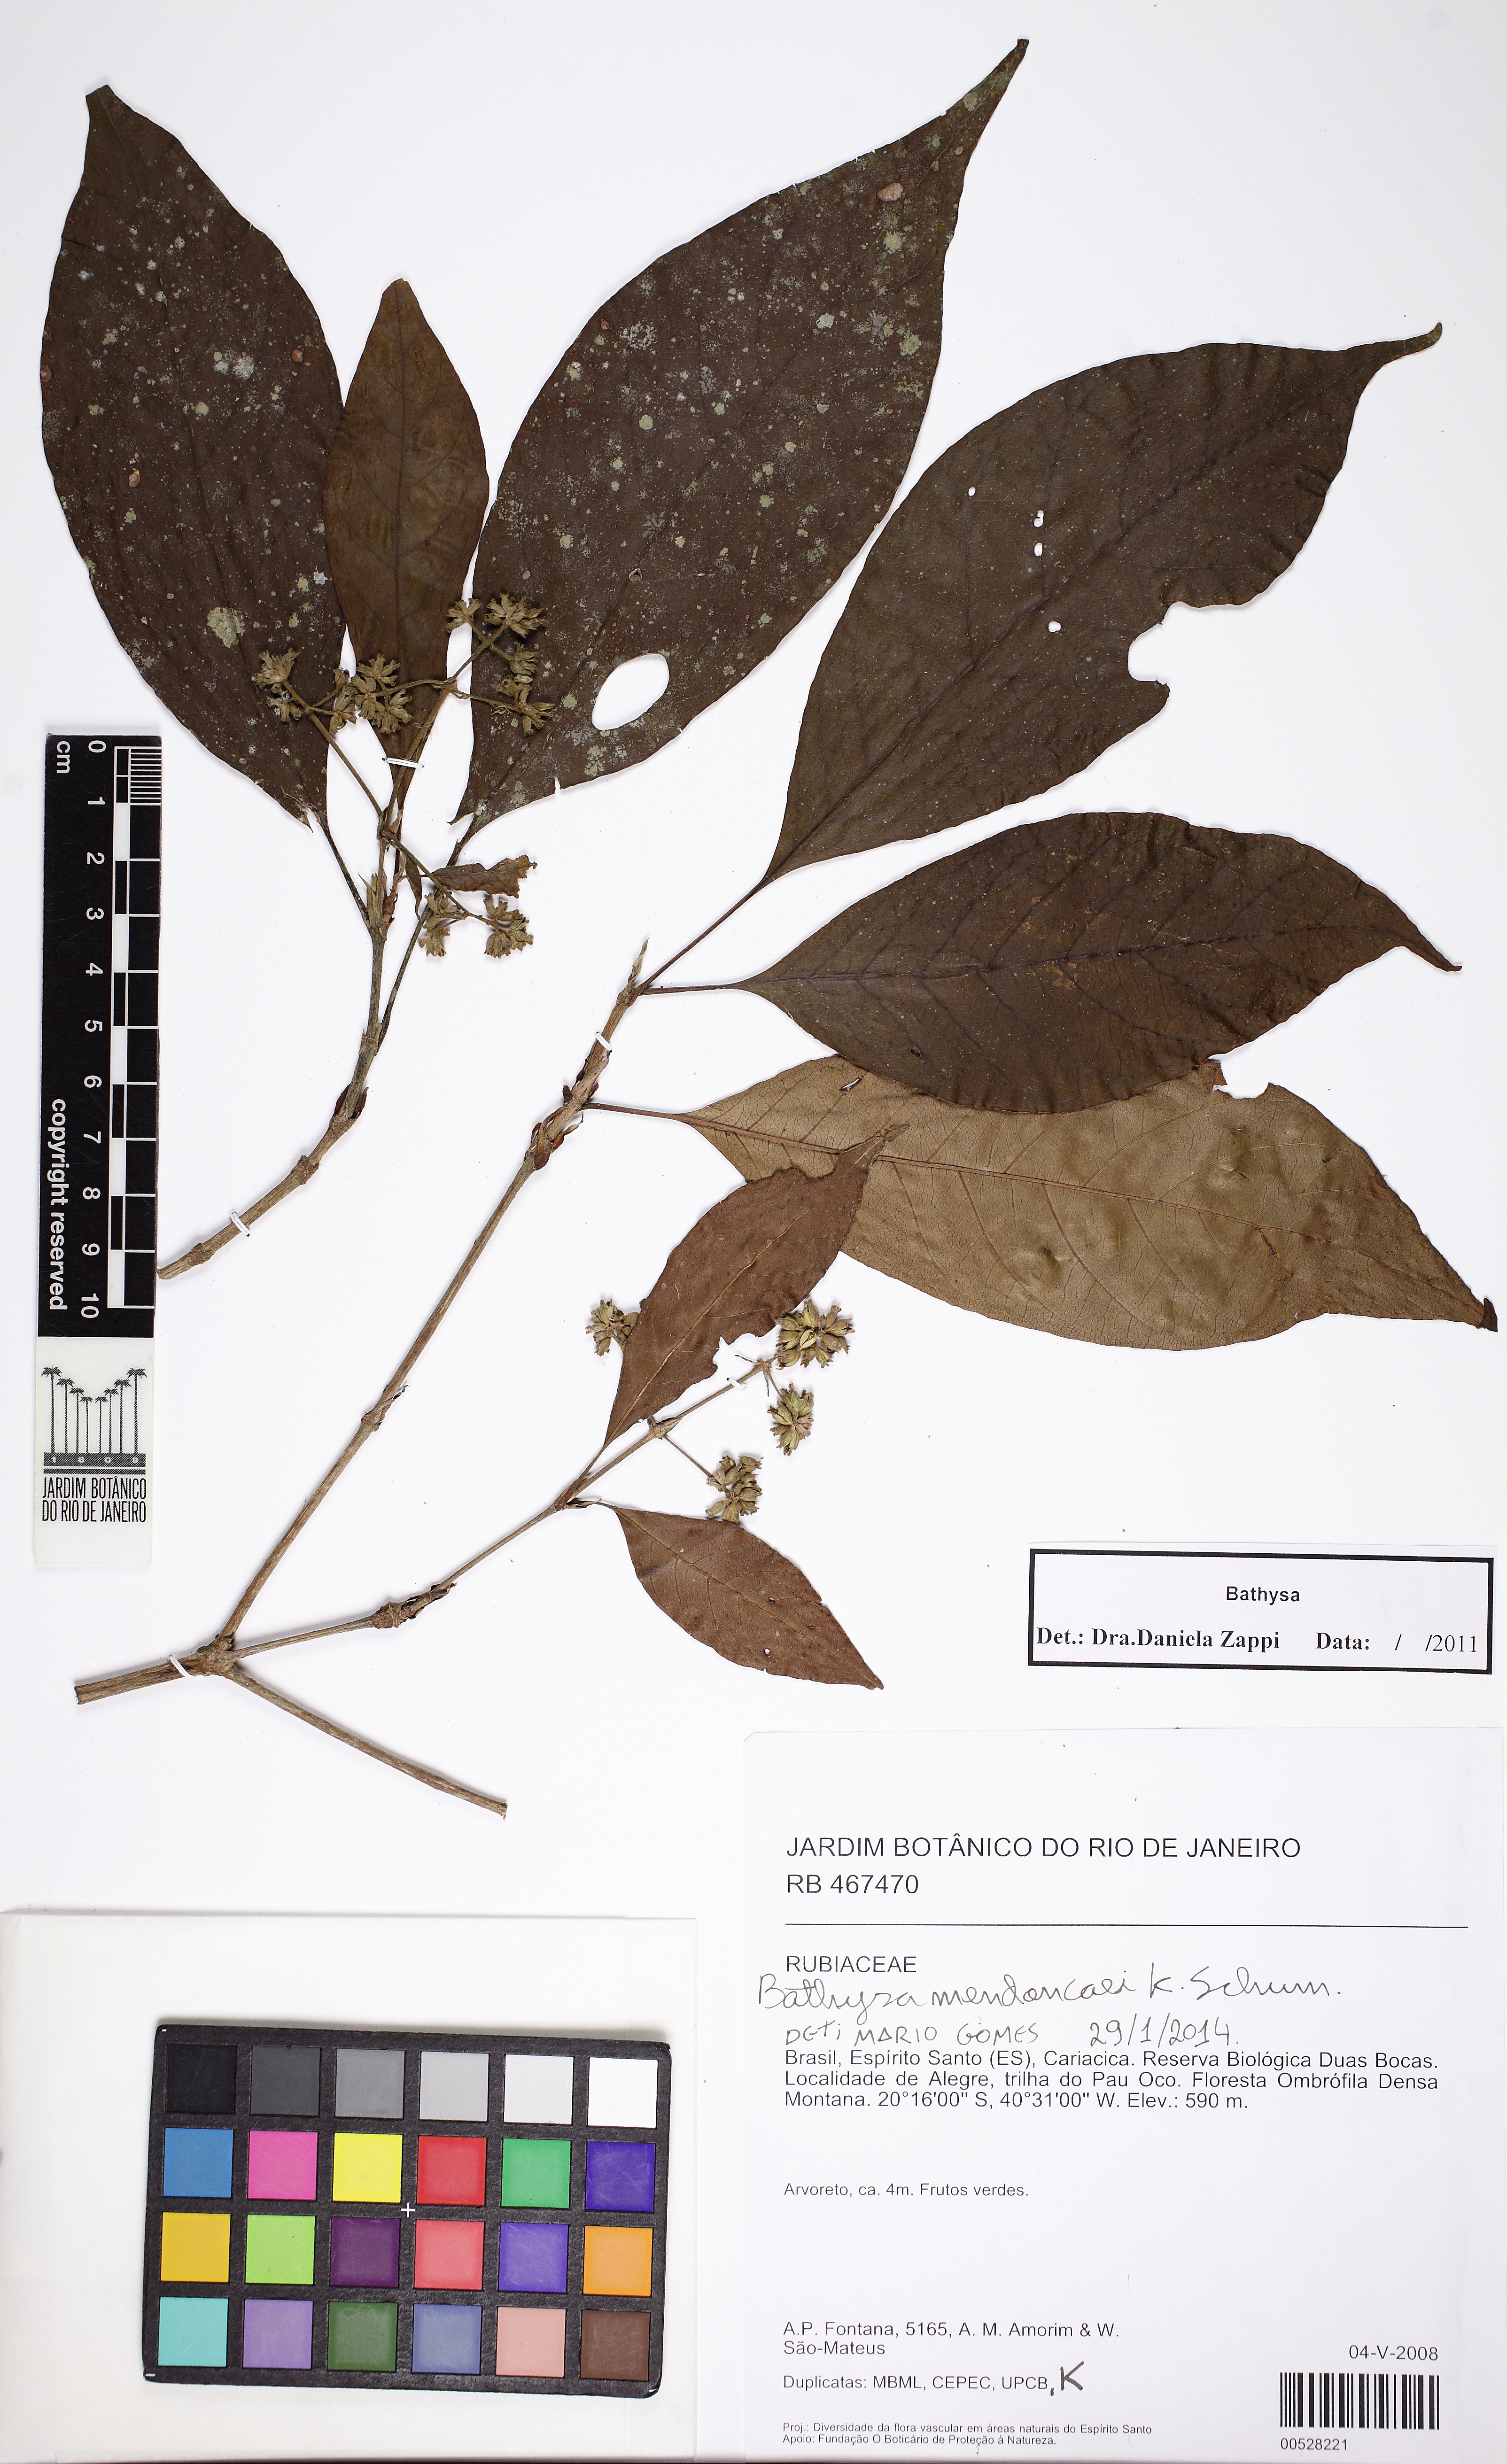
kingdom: Plantae
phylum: Tracheophyta
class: Magnoliopsida
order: Gentianales
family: Rubiaceae
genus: Bathysa
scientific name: Bathysa mendoncaei
